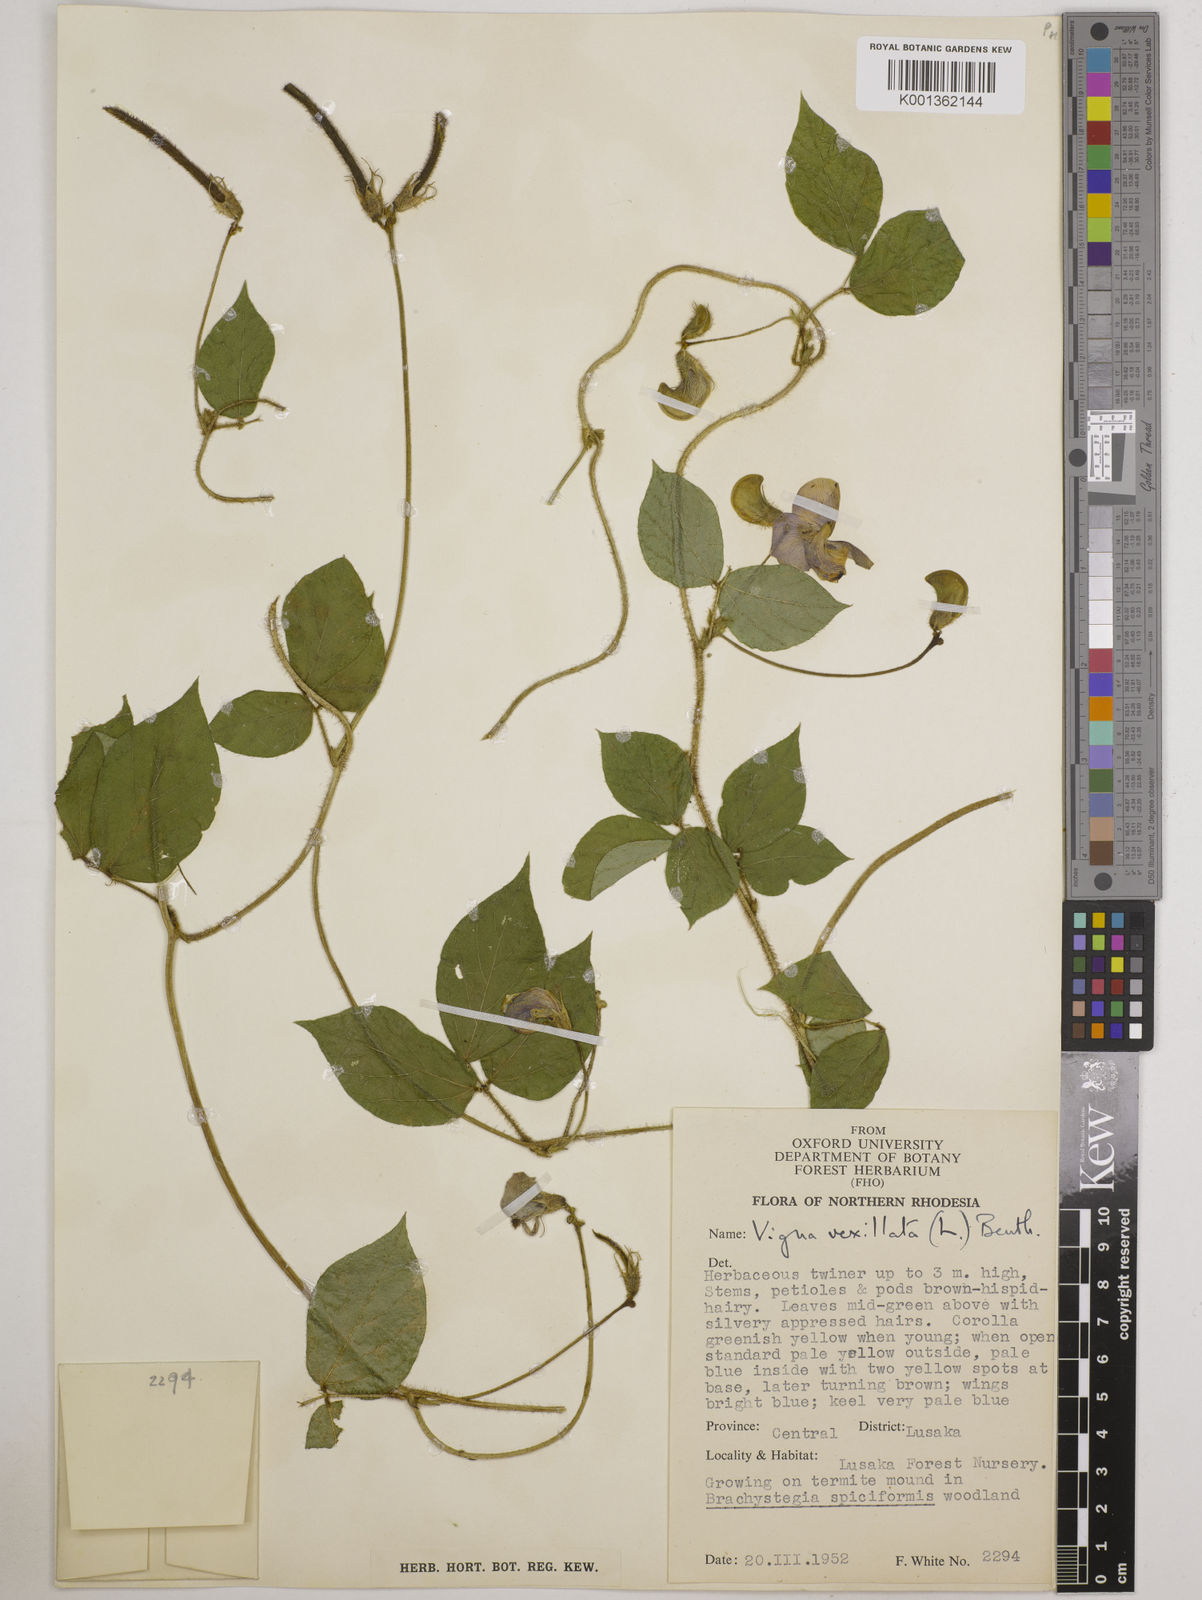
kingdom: Plantae
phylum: Tracheophyta
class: Magnoliopsida
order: Fabales
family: Fabaceae
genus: Vigna
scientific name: Vigna vexillata
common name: Zombi pea
